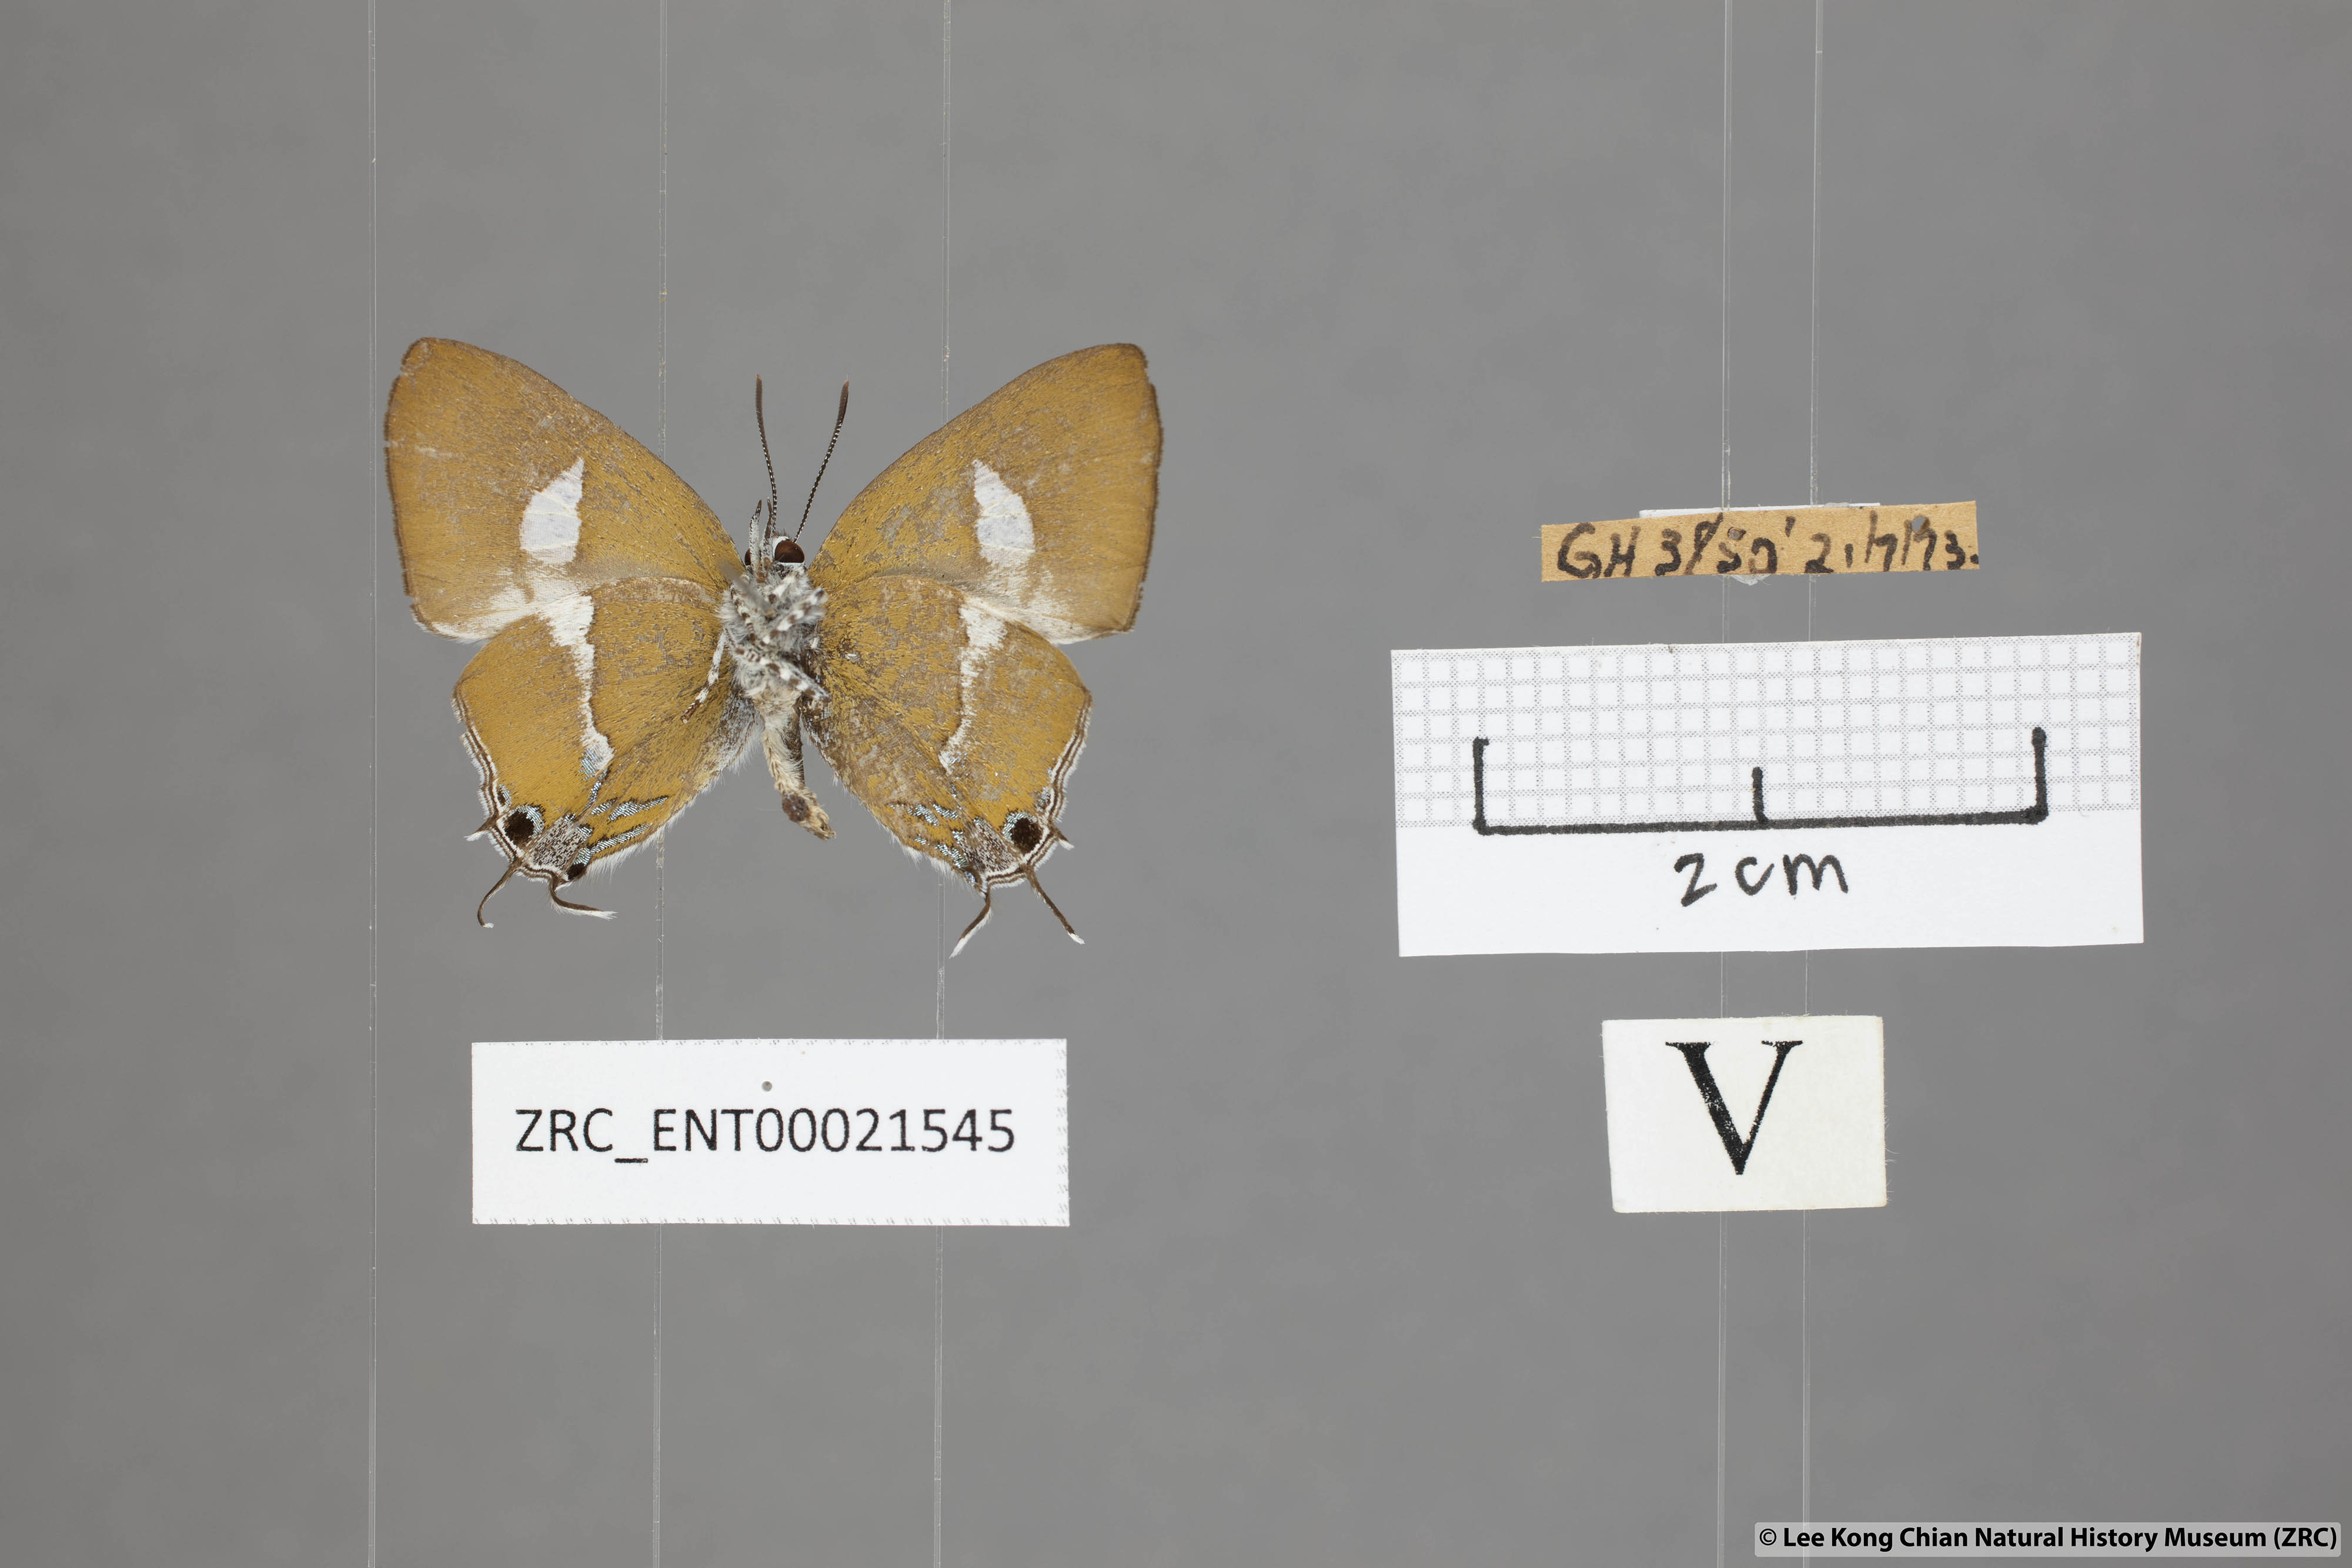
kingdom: Animalia
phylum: Arthropoda
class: Insecta
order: Lepidoptera
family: Lycaenidae
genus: Horaga
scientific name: Horaga syrinx
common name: Ambon onyx
